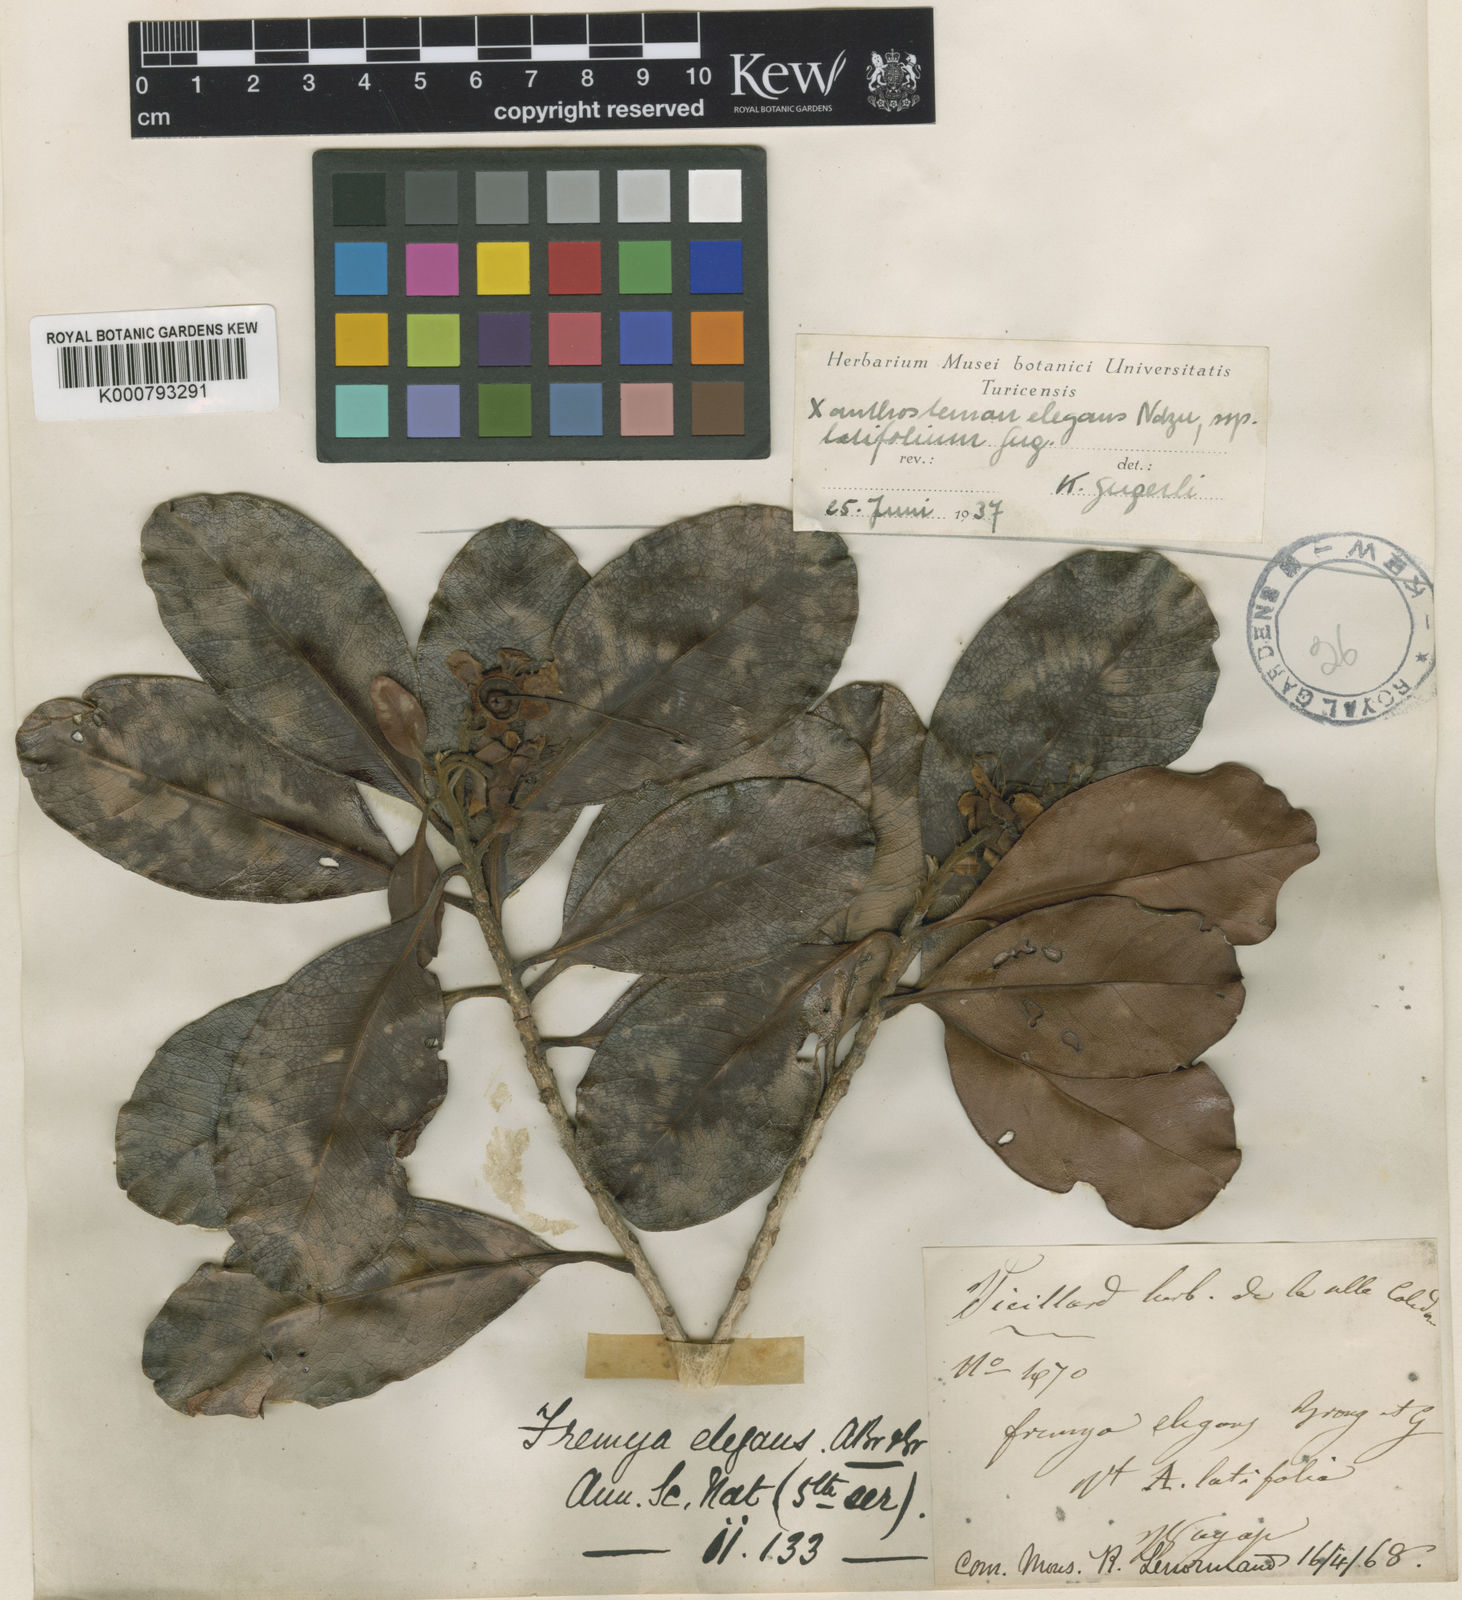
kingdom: Plantae
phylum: Tracheophyta
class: Magnoliopsida
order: Myrtales
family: Myrtaceae
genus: Xanthostemon
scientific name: Xanthostemon multiflorus
